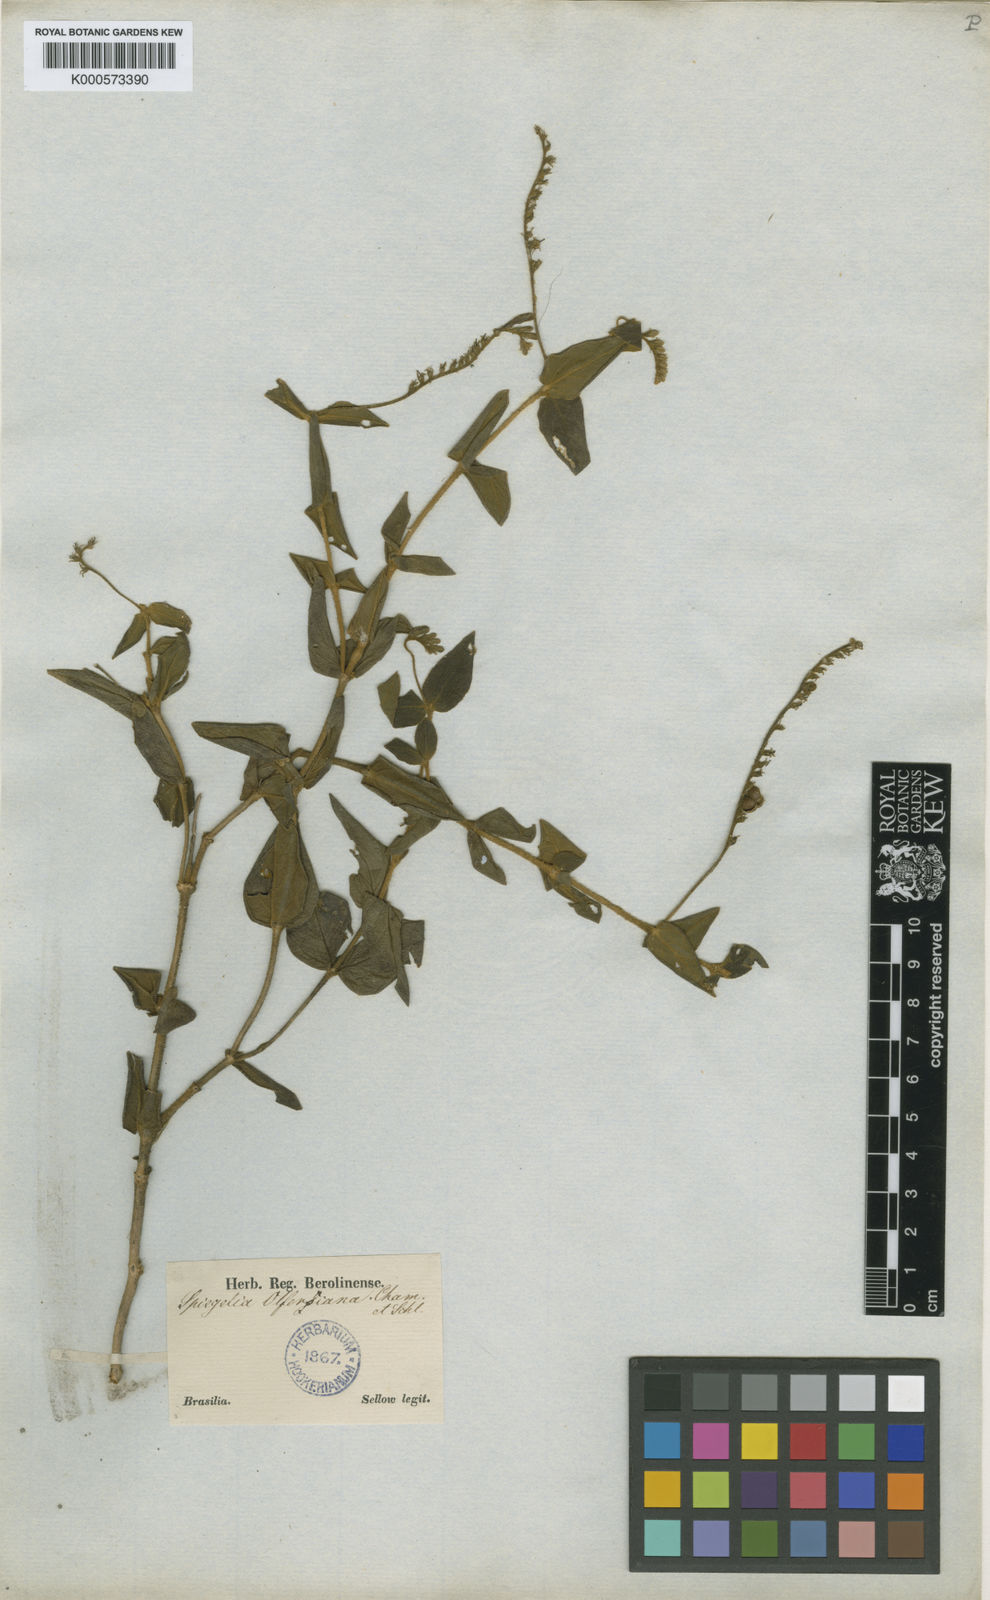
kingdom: Plantae
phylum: Tracheophyta
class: Magnoliopsida
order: Gentianales
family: Loganiaceae
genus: Spigelia
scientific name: Spigelia olfersiana
